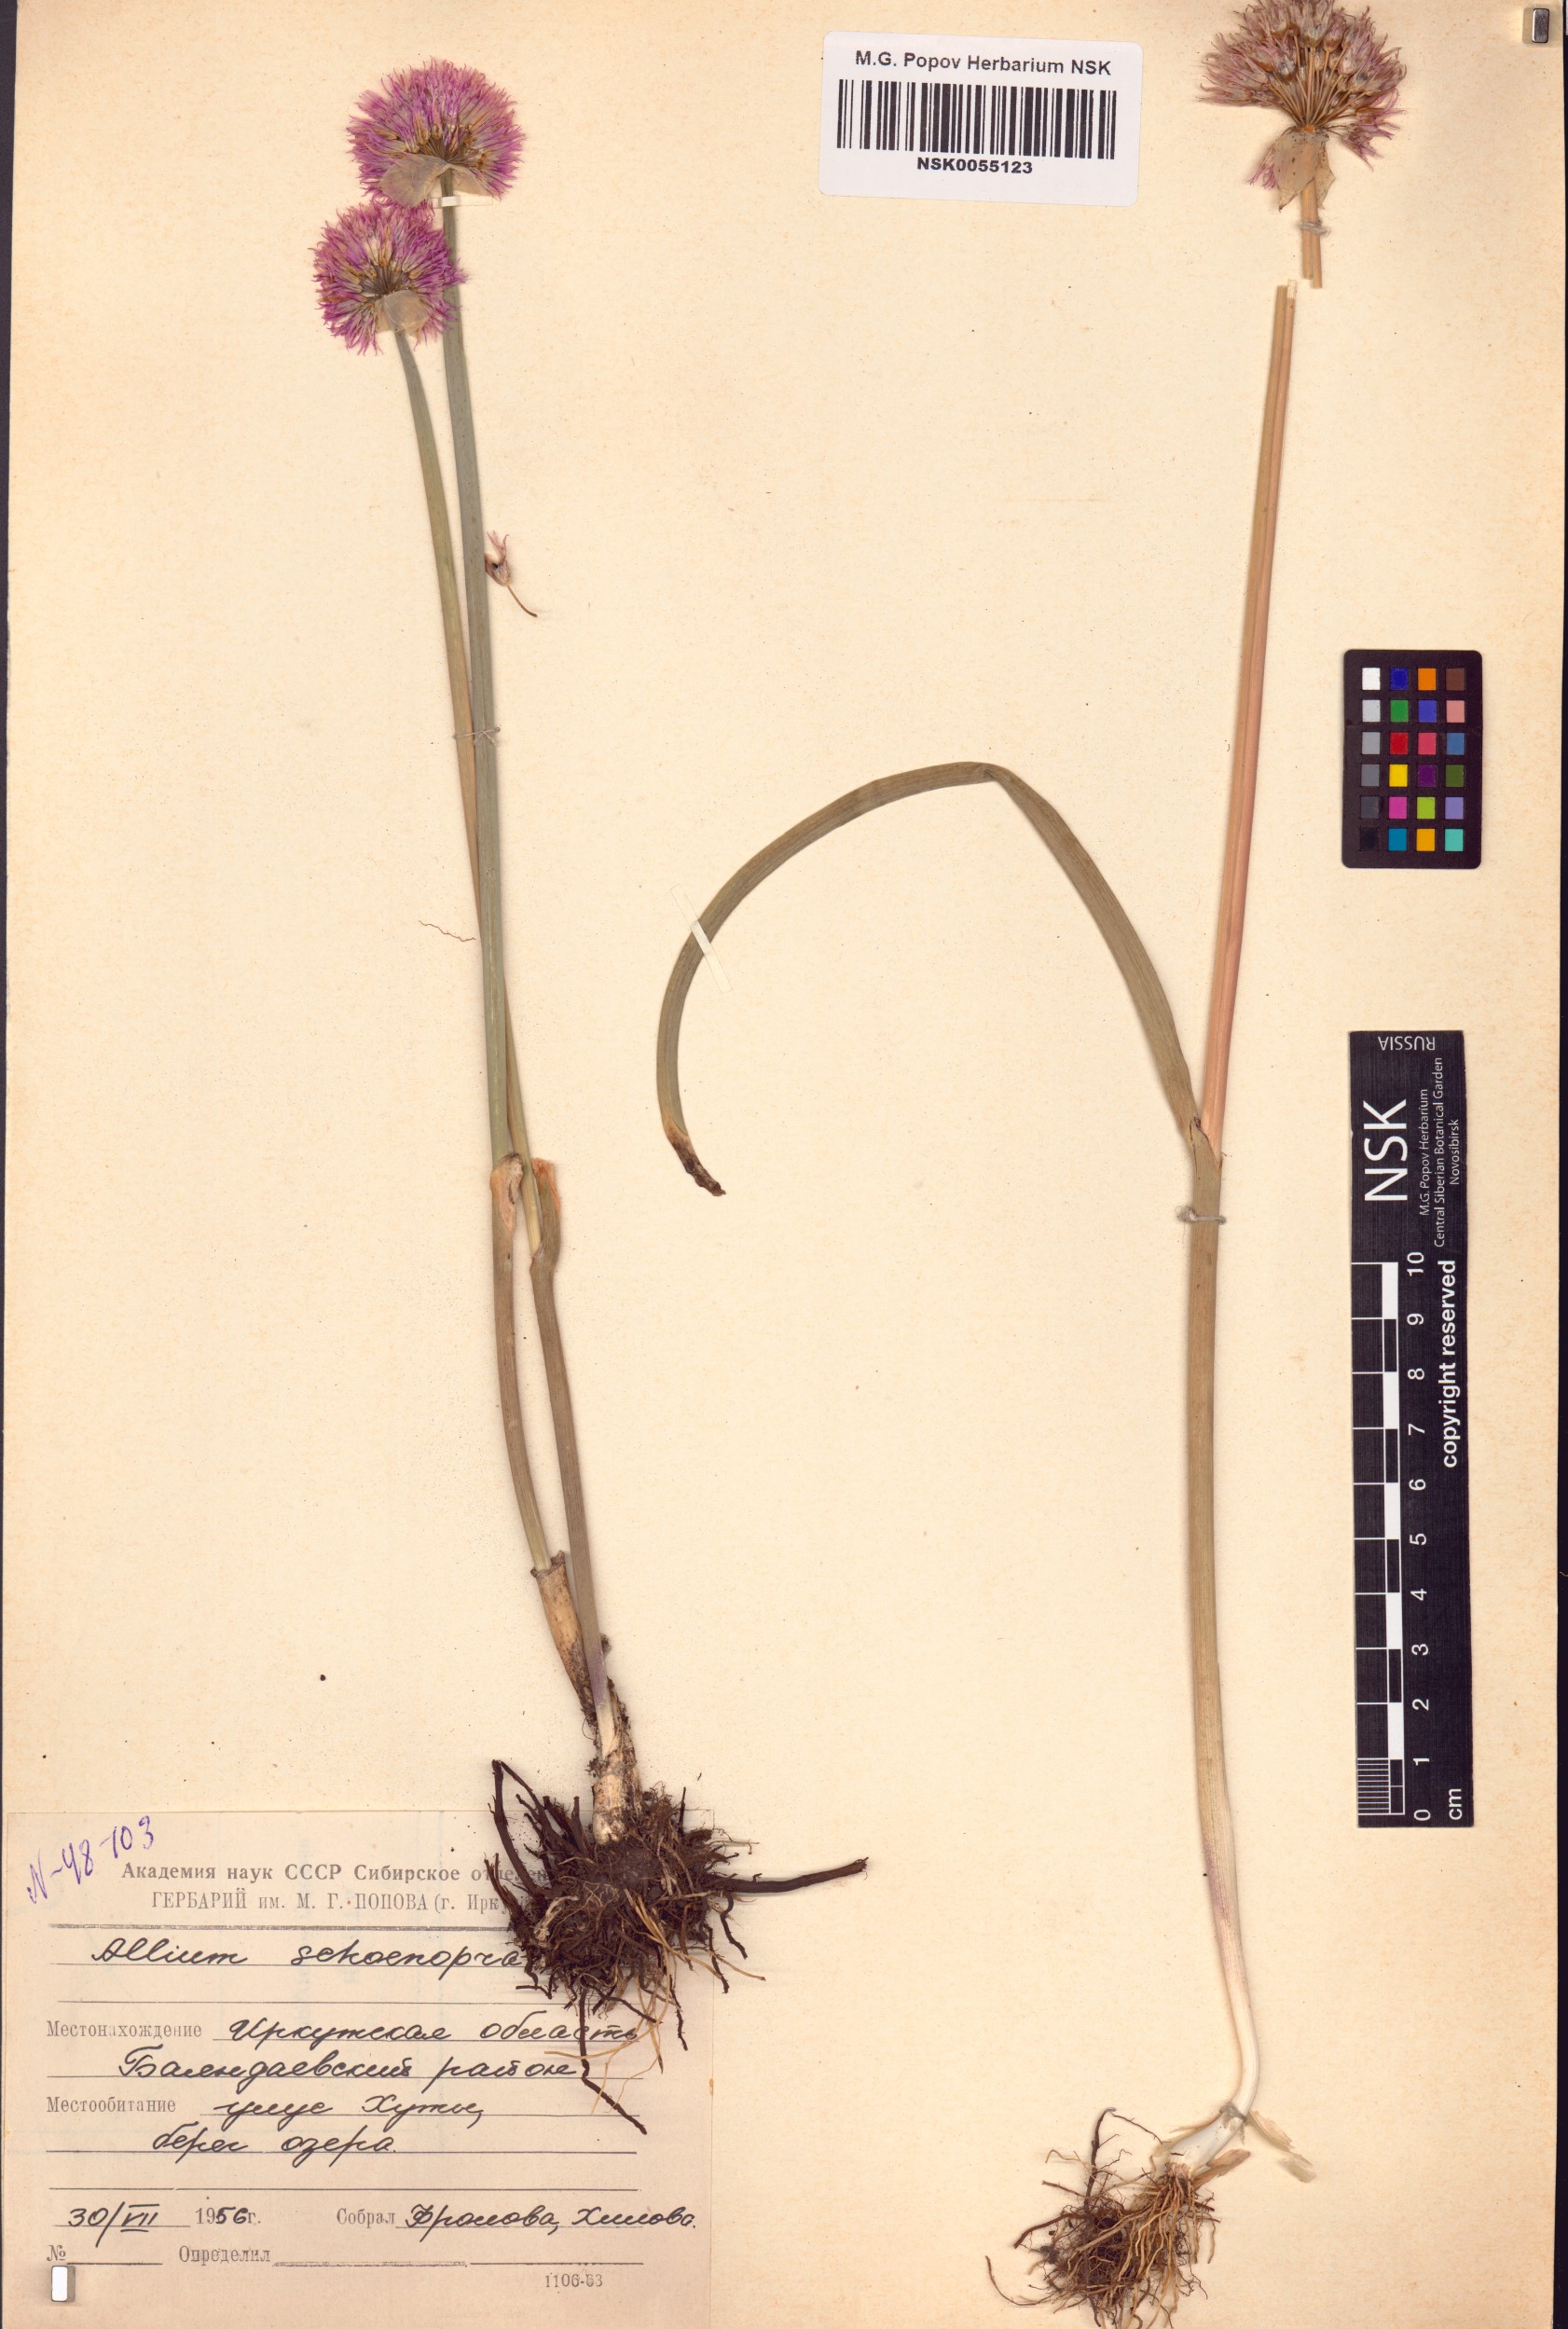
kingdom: Plantae
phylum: Tracheophyta
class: Liliopsida
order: Asparagales
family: Amaryllidaceae
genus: Allium
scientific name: Allium schoenoprasum
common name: Chives
